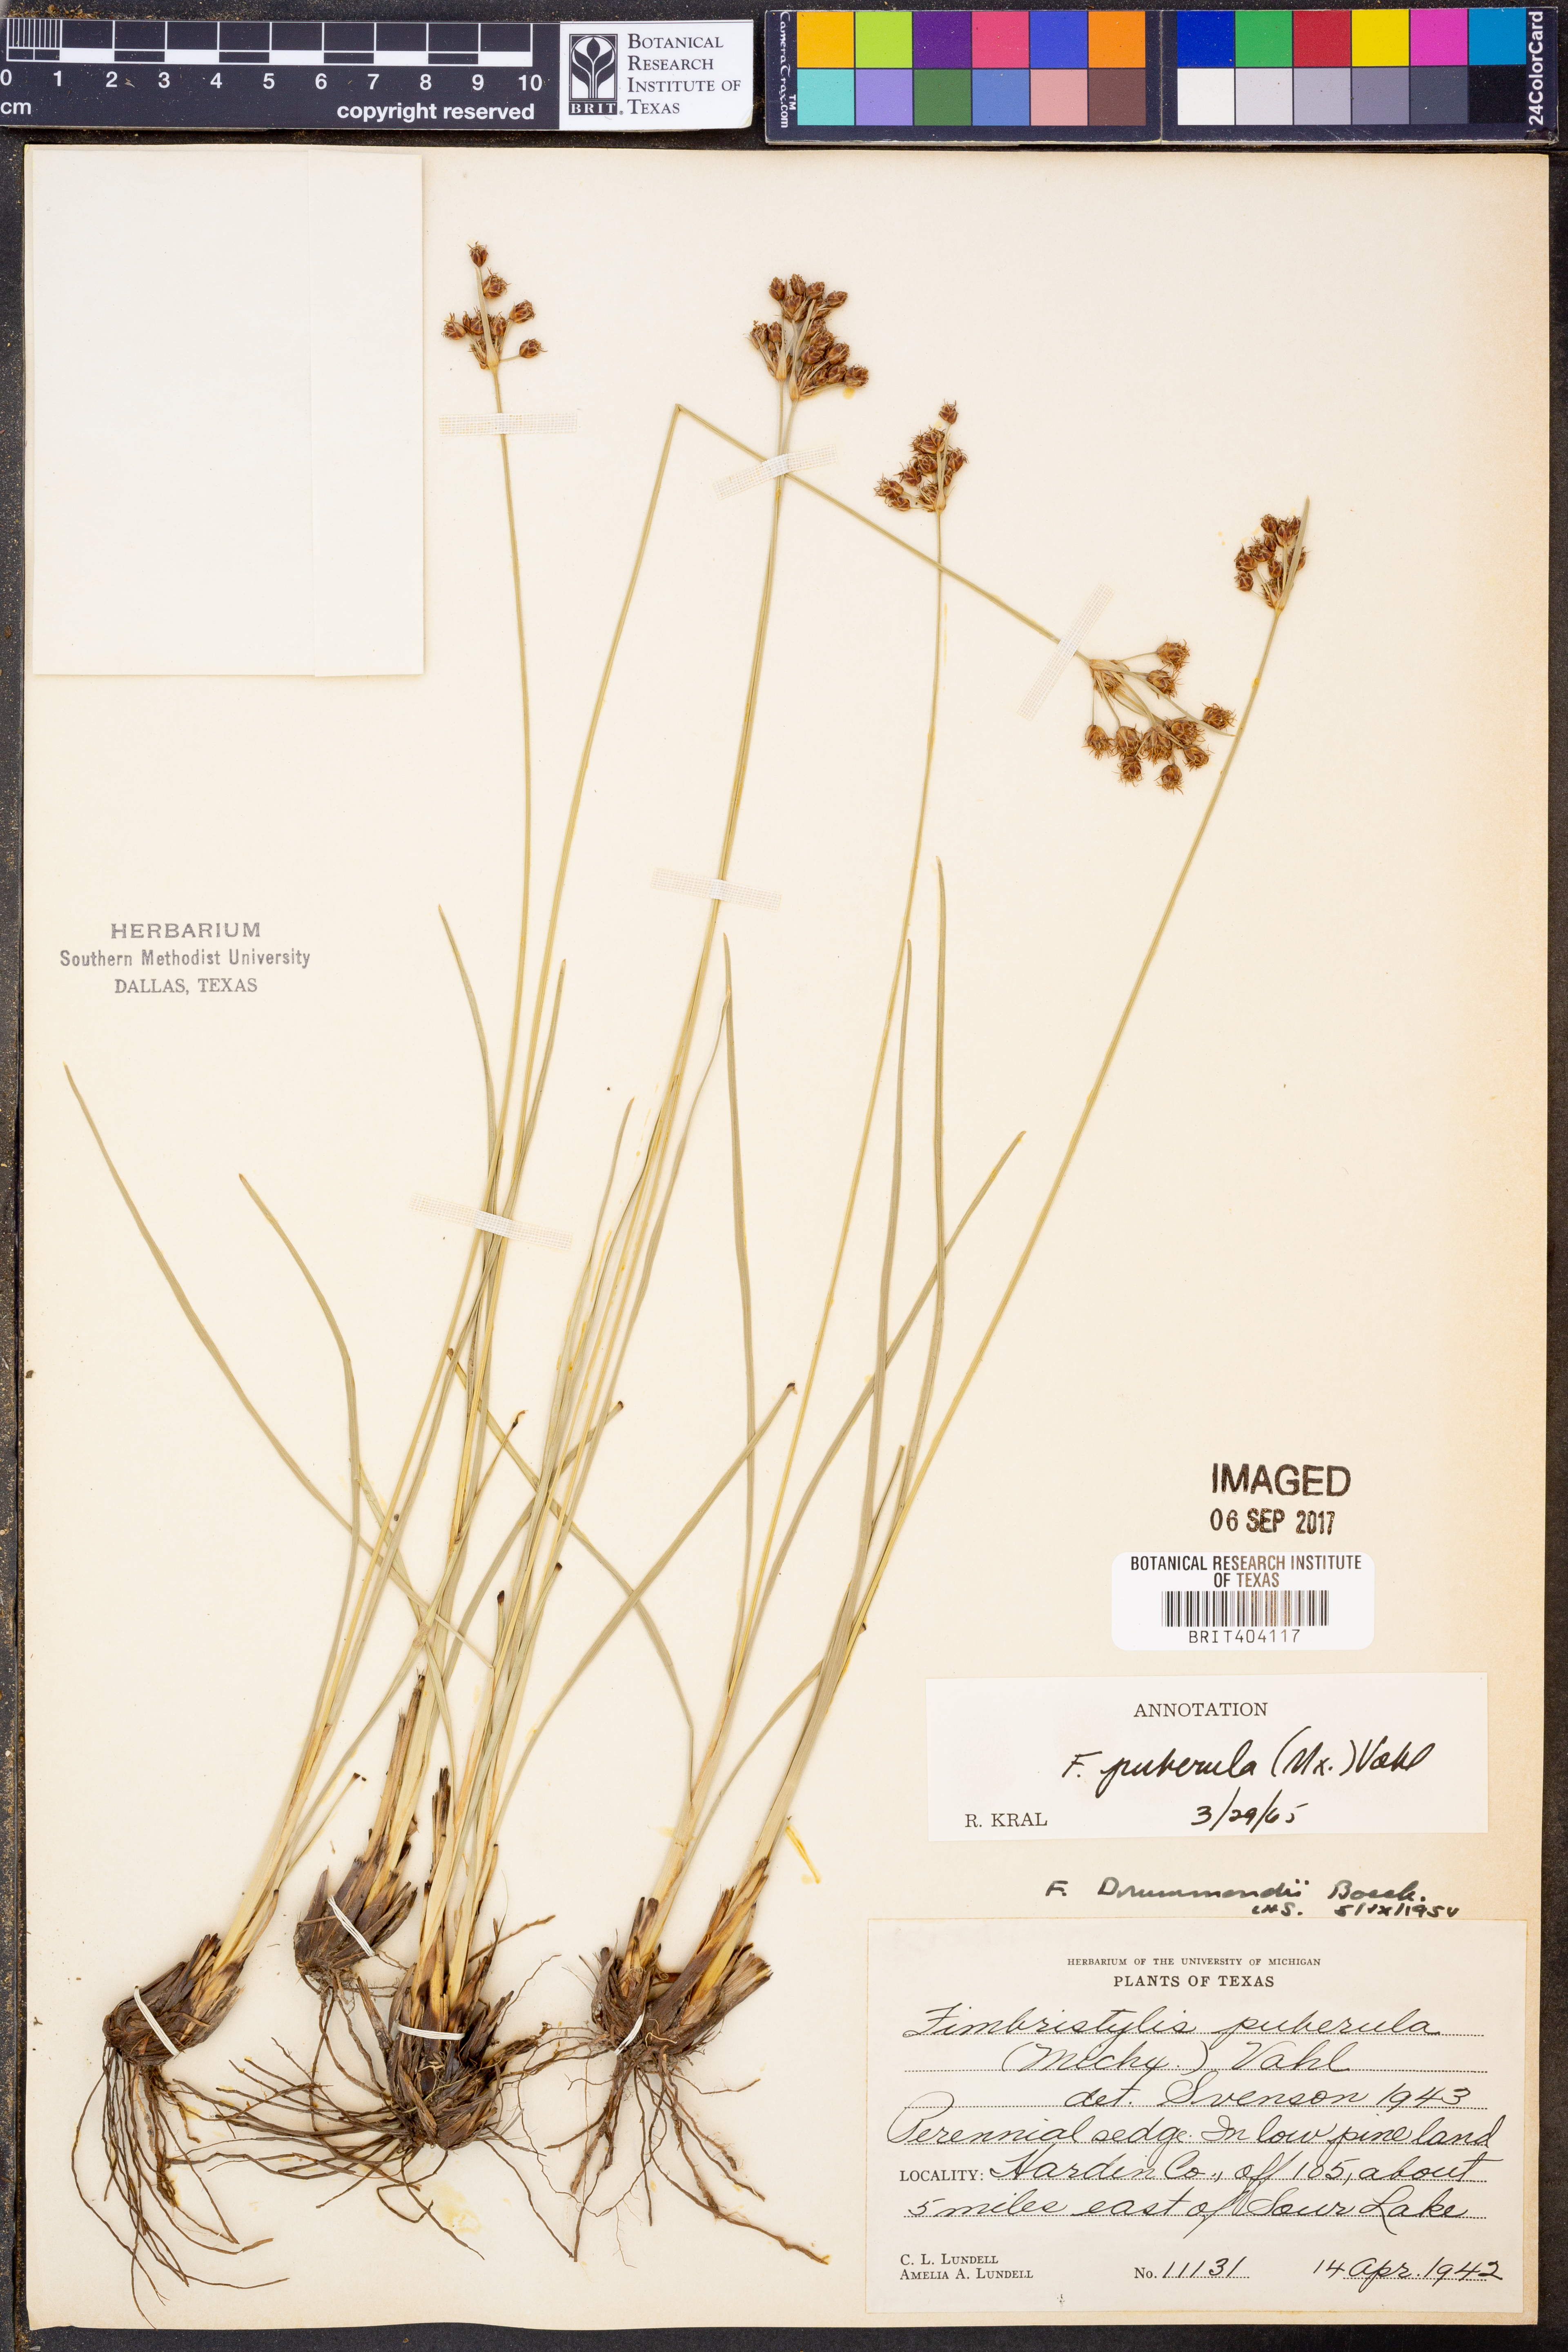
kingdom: Plantae
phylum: Tracheophyta
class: Liliopsida
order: Poales
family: Cyperaceae
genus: Fimbristylis
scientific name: Fimbristylis puberula
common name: Hairy fimbristylis
